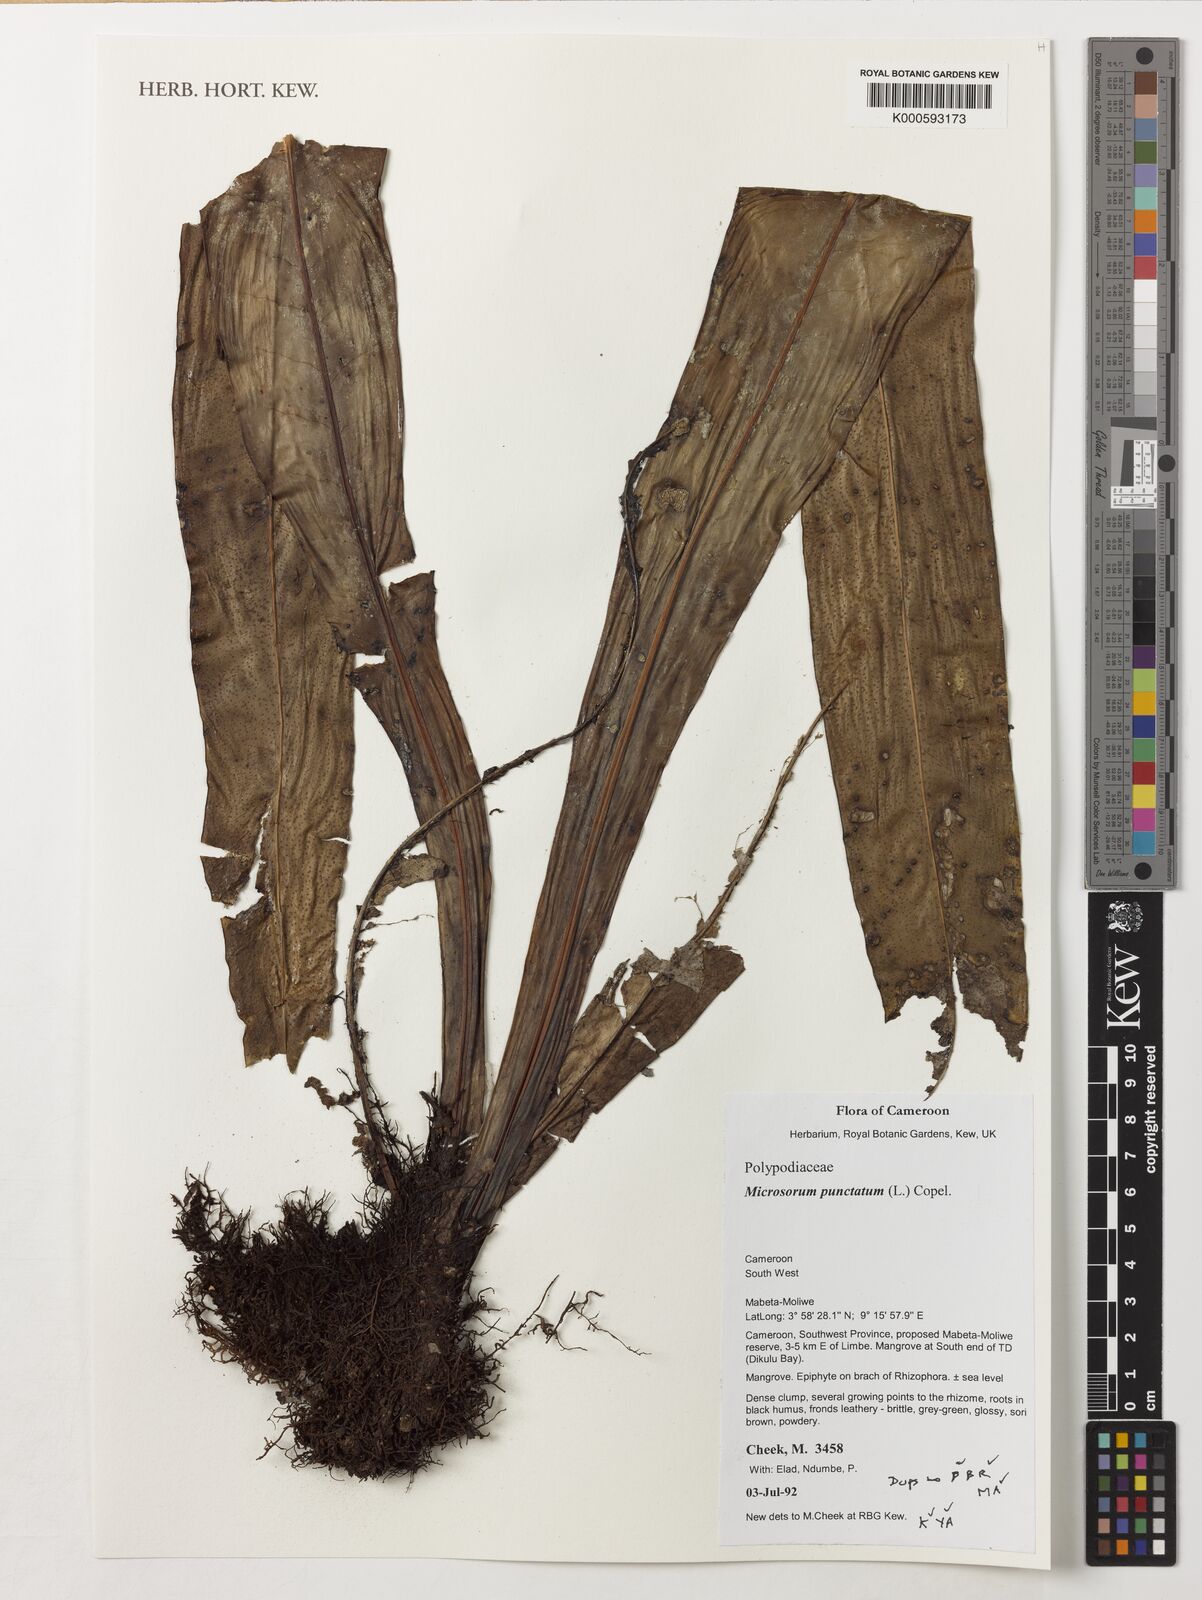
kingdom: Plantae
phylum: Tracheophyta
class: Polypodiopsida
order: Polypodiales
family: Polypodiaceae
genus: Microsorum
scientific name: Microsorum punctatum
